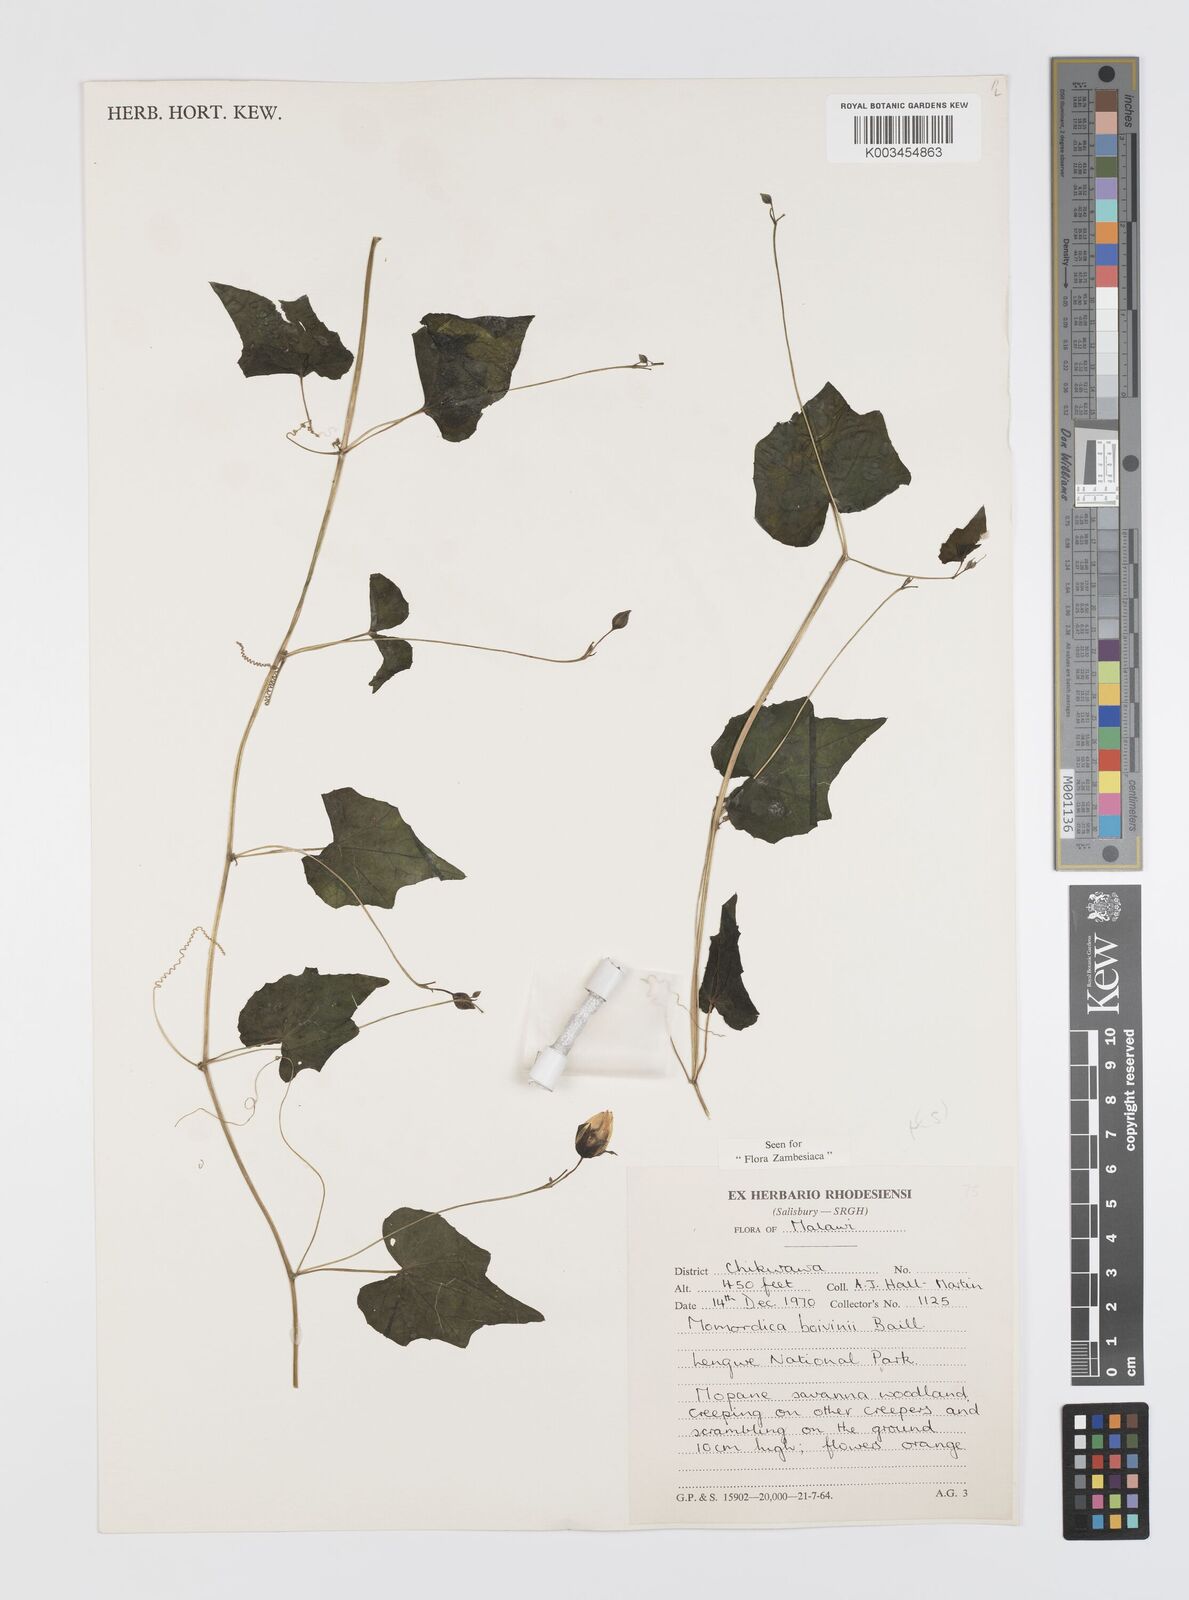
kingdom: Plantae
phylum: Tracheophyta
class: Magnoliopsida
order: Cucurbitales
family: Cucurbitaceae
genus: Momordica
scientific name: Momordica boivinii
